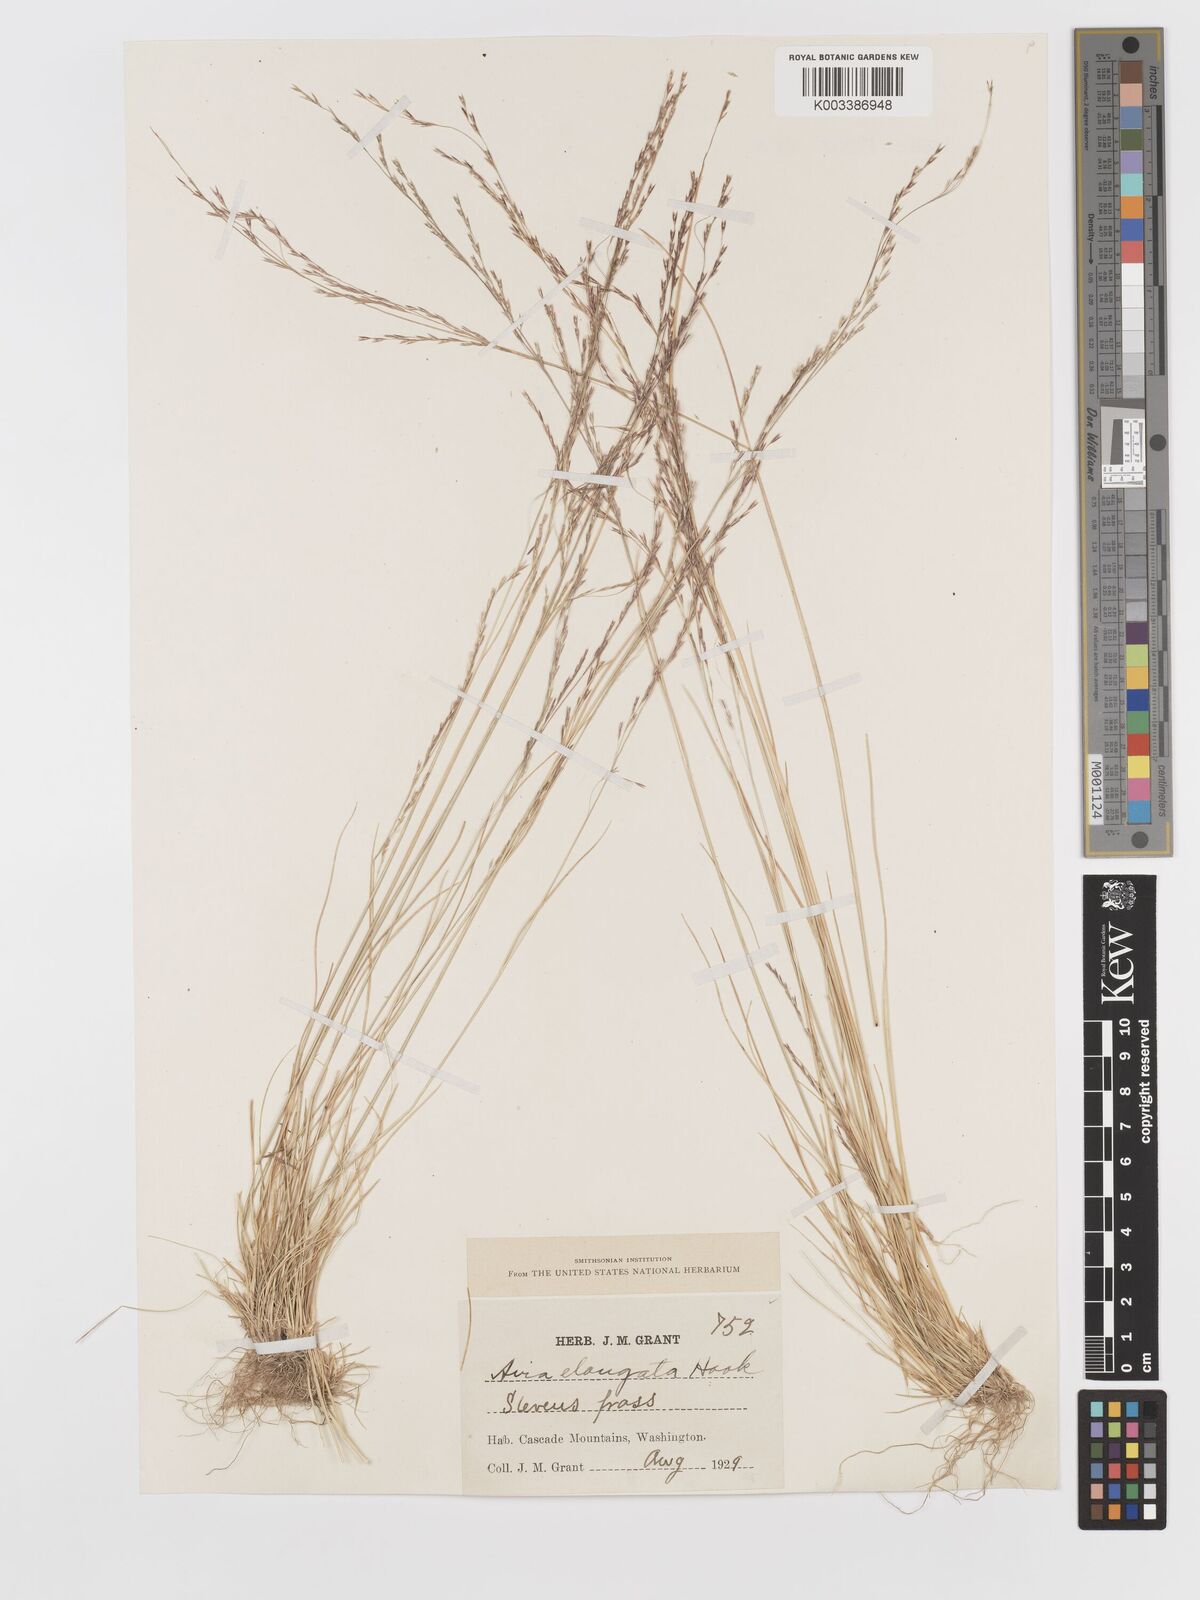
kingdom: Plantae
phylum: Tracheophyta
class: Liliopsida
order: Poales
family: Poaceae
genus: Deschampsia
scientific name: Deschampsia elongata
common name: Slender hairgrass
